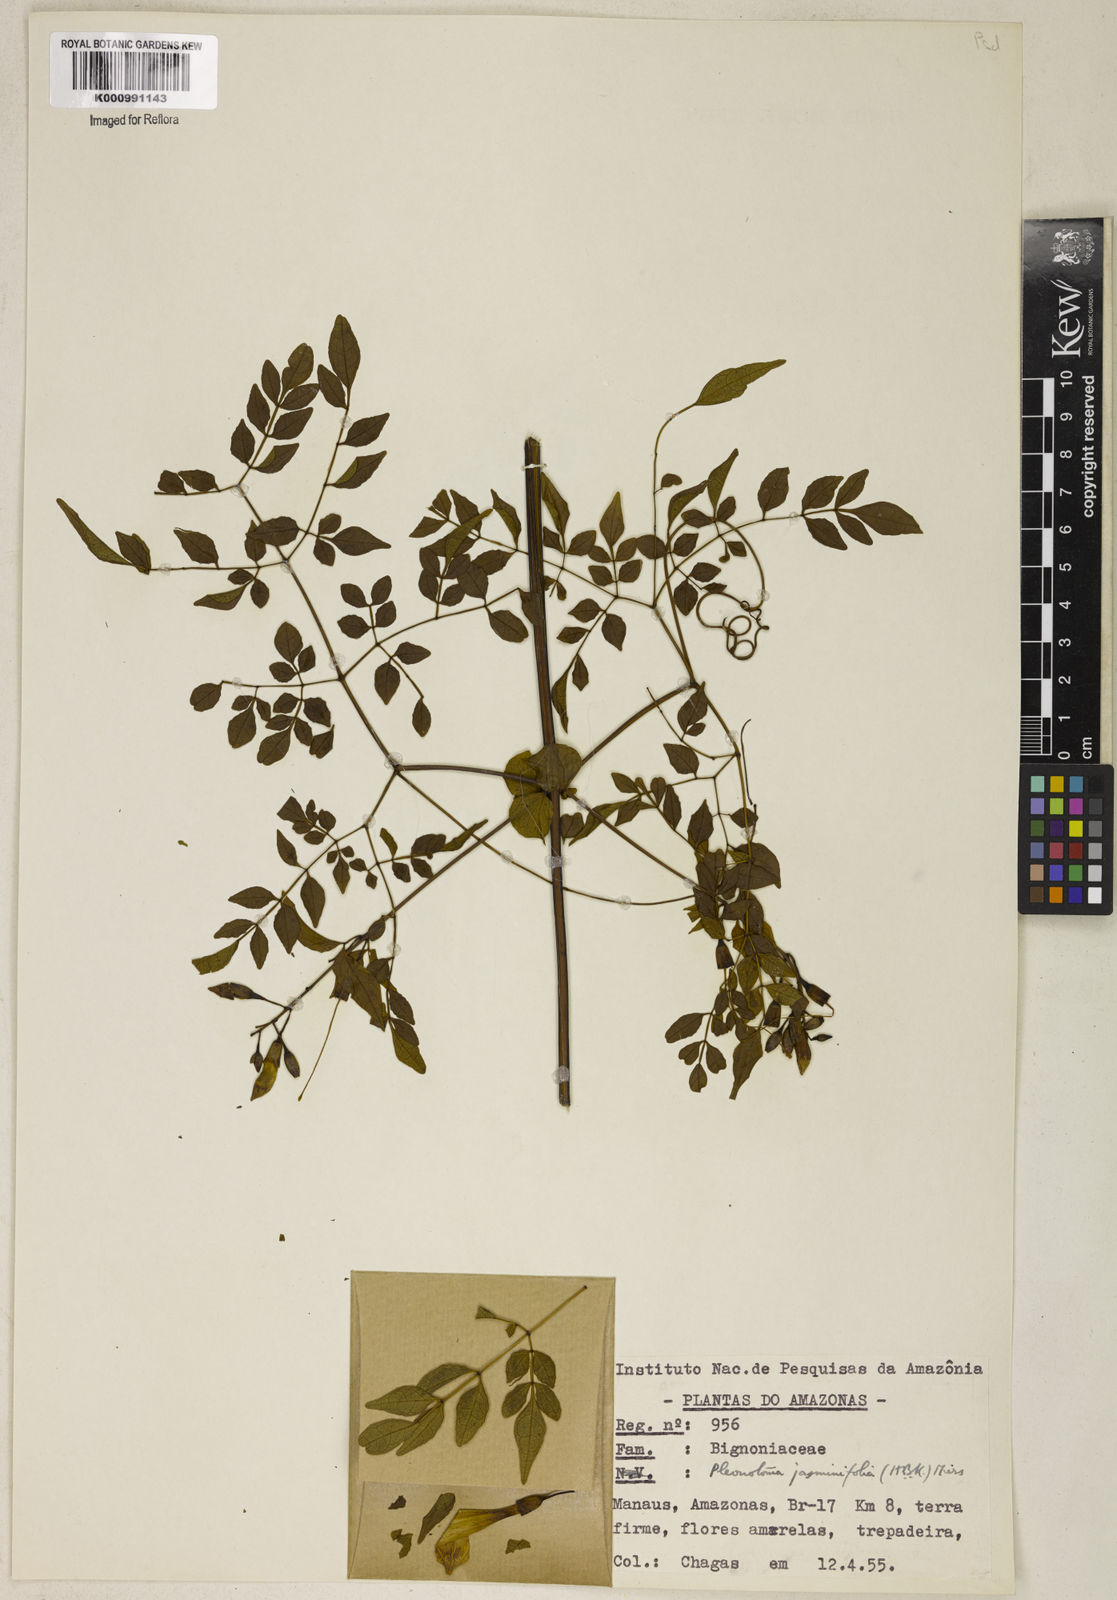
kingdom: Plantae
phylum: Tracheophyta
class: Magnoliopsida
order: Lamiales
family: Bignoniaceae
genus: Pleonotoma
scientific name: Pleonotoma jasminifolia
